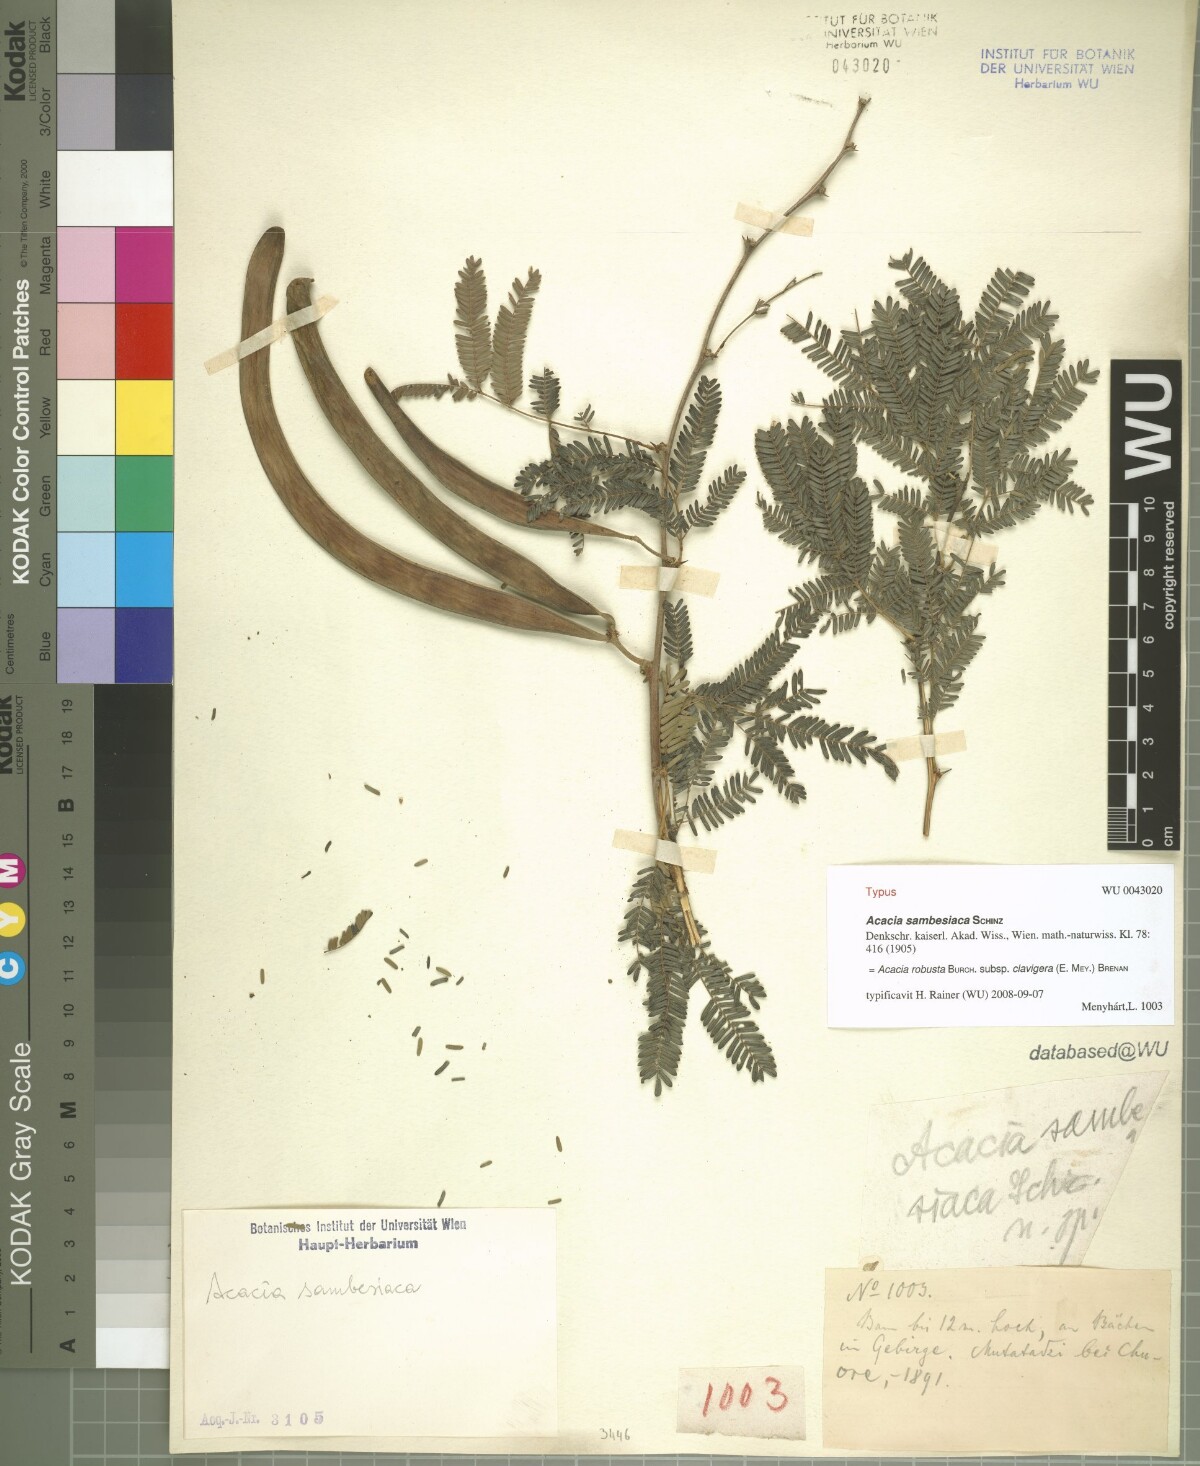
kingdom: Plantae
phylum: Tracheophyta
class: Magnoliopsida
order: Fabales
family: Fabaceae
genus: Vachellia
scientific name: Vachellia robusta
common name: Ankle thorn
